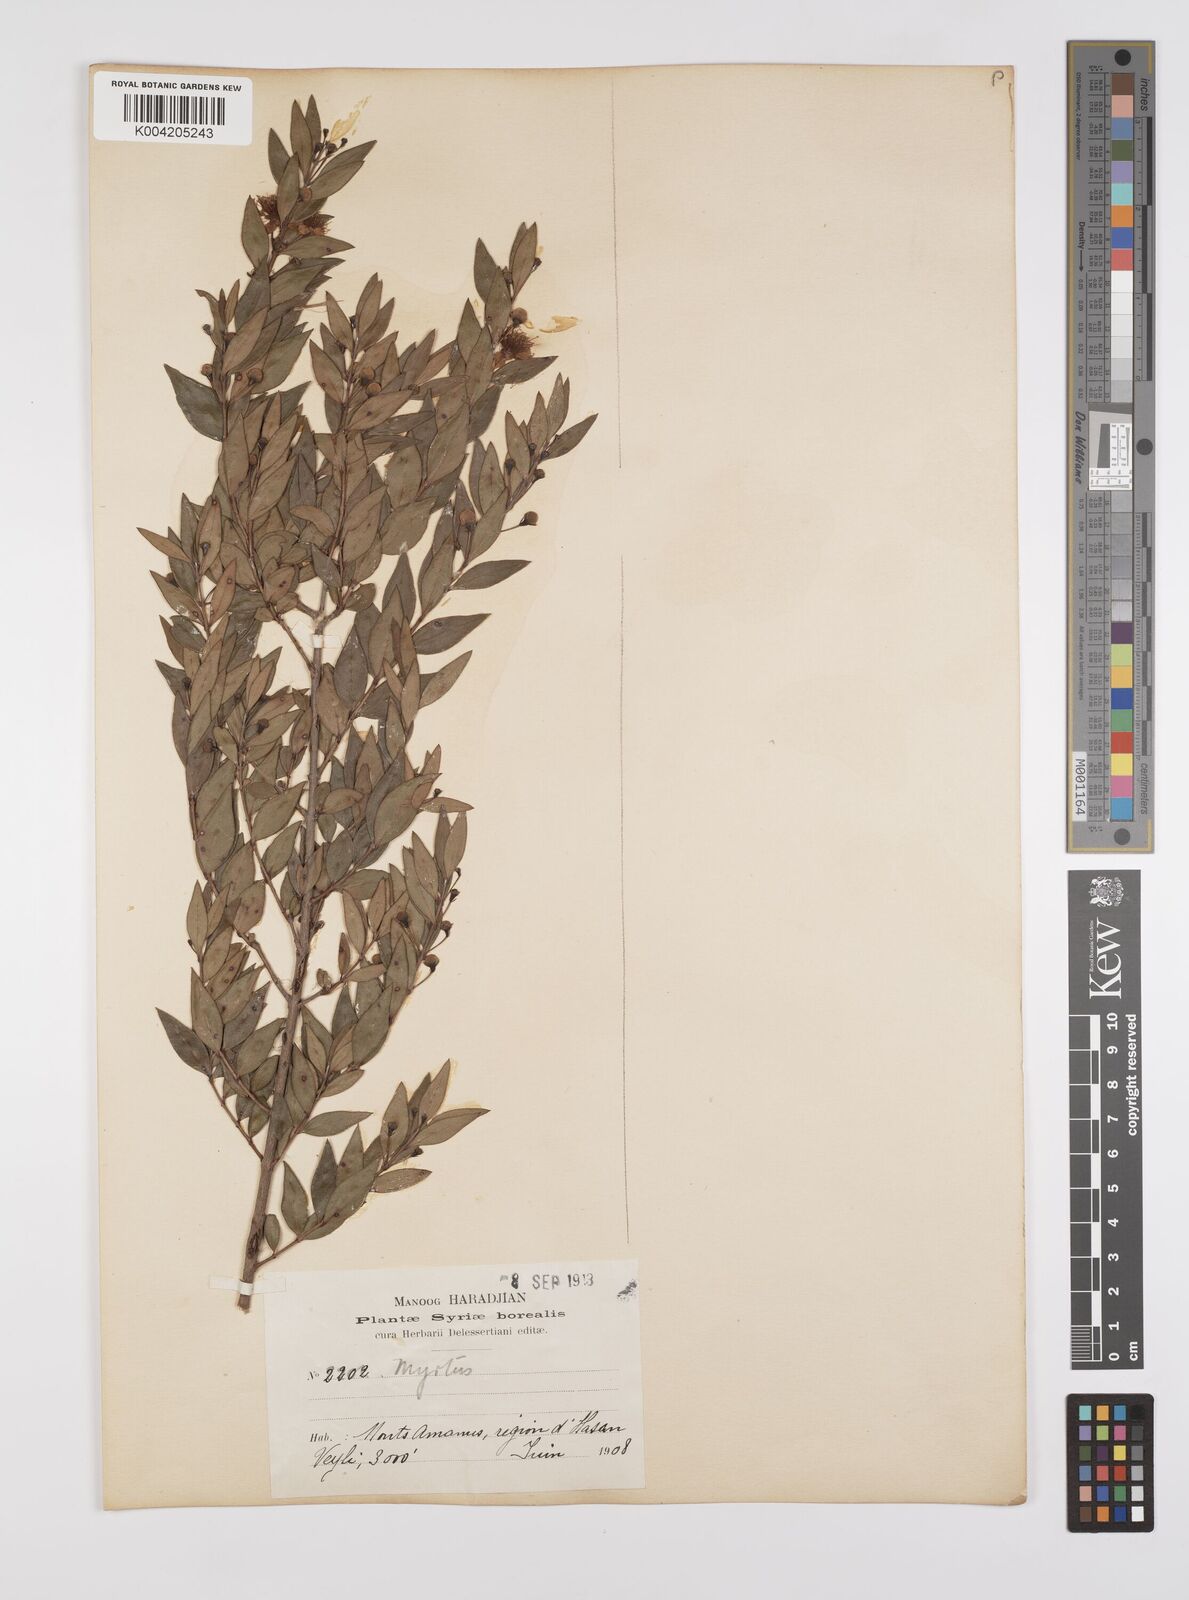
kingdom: Plantae
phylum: Tracheophyta
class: Magnoliopsida
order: Myrtales
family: Myrtaceae
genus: Myrtus
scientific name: Myrtus communis
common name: Myrtle
